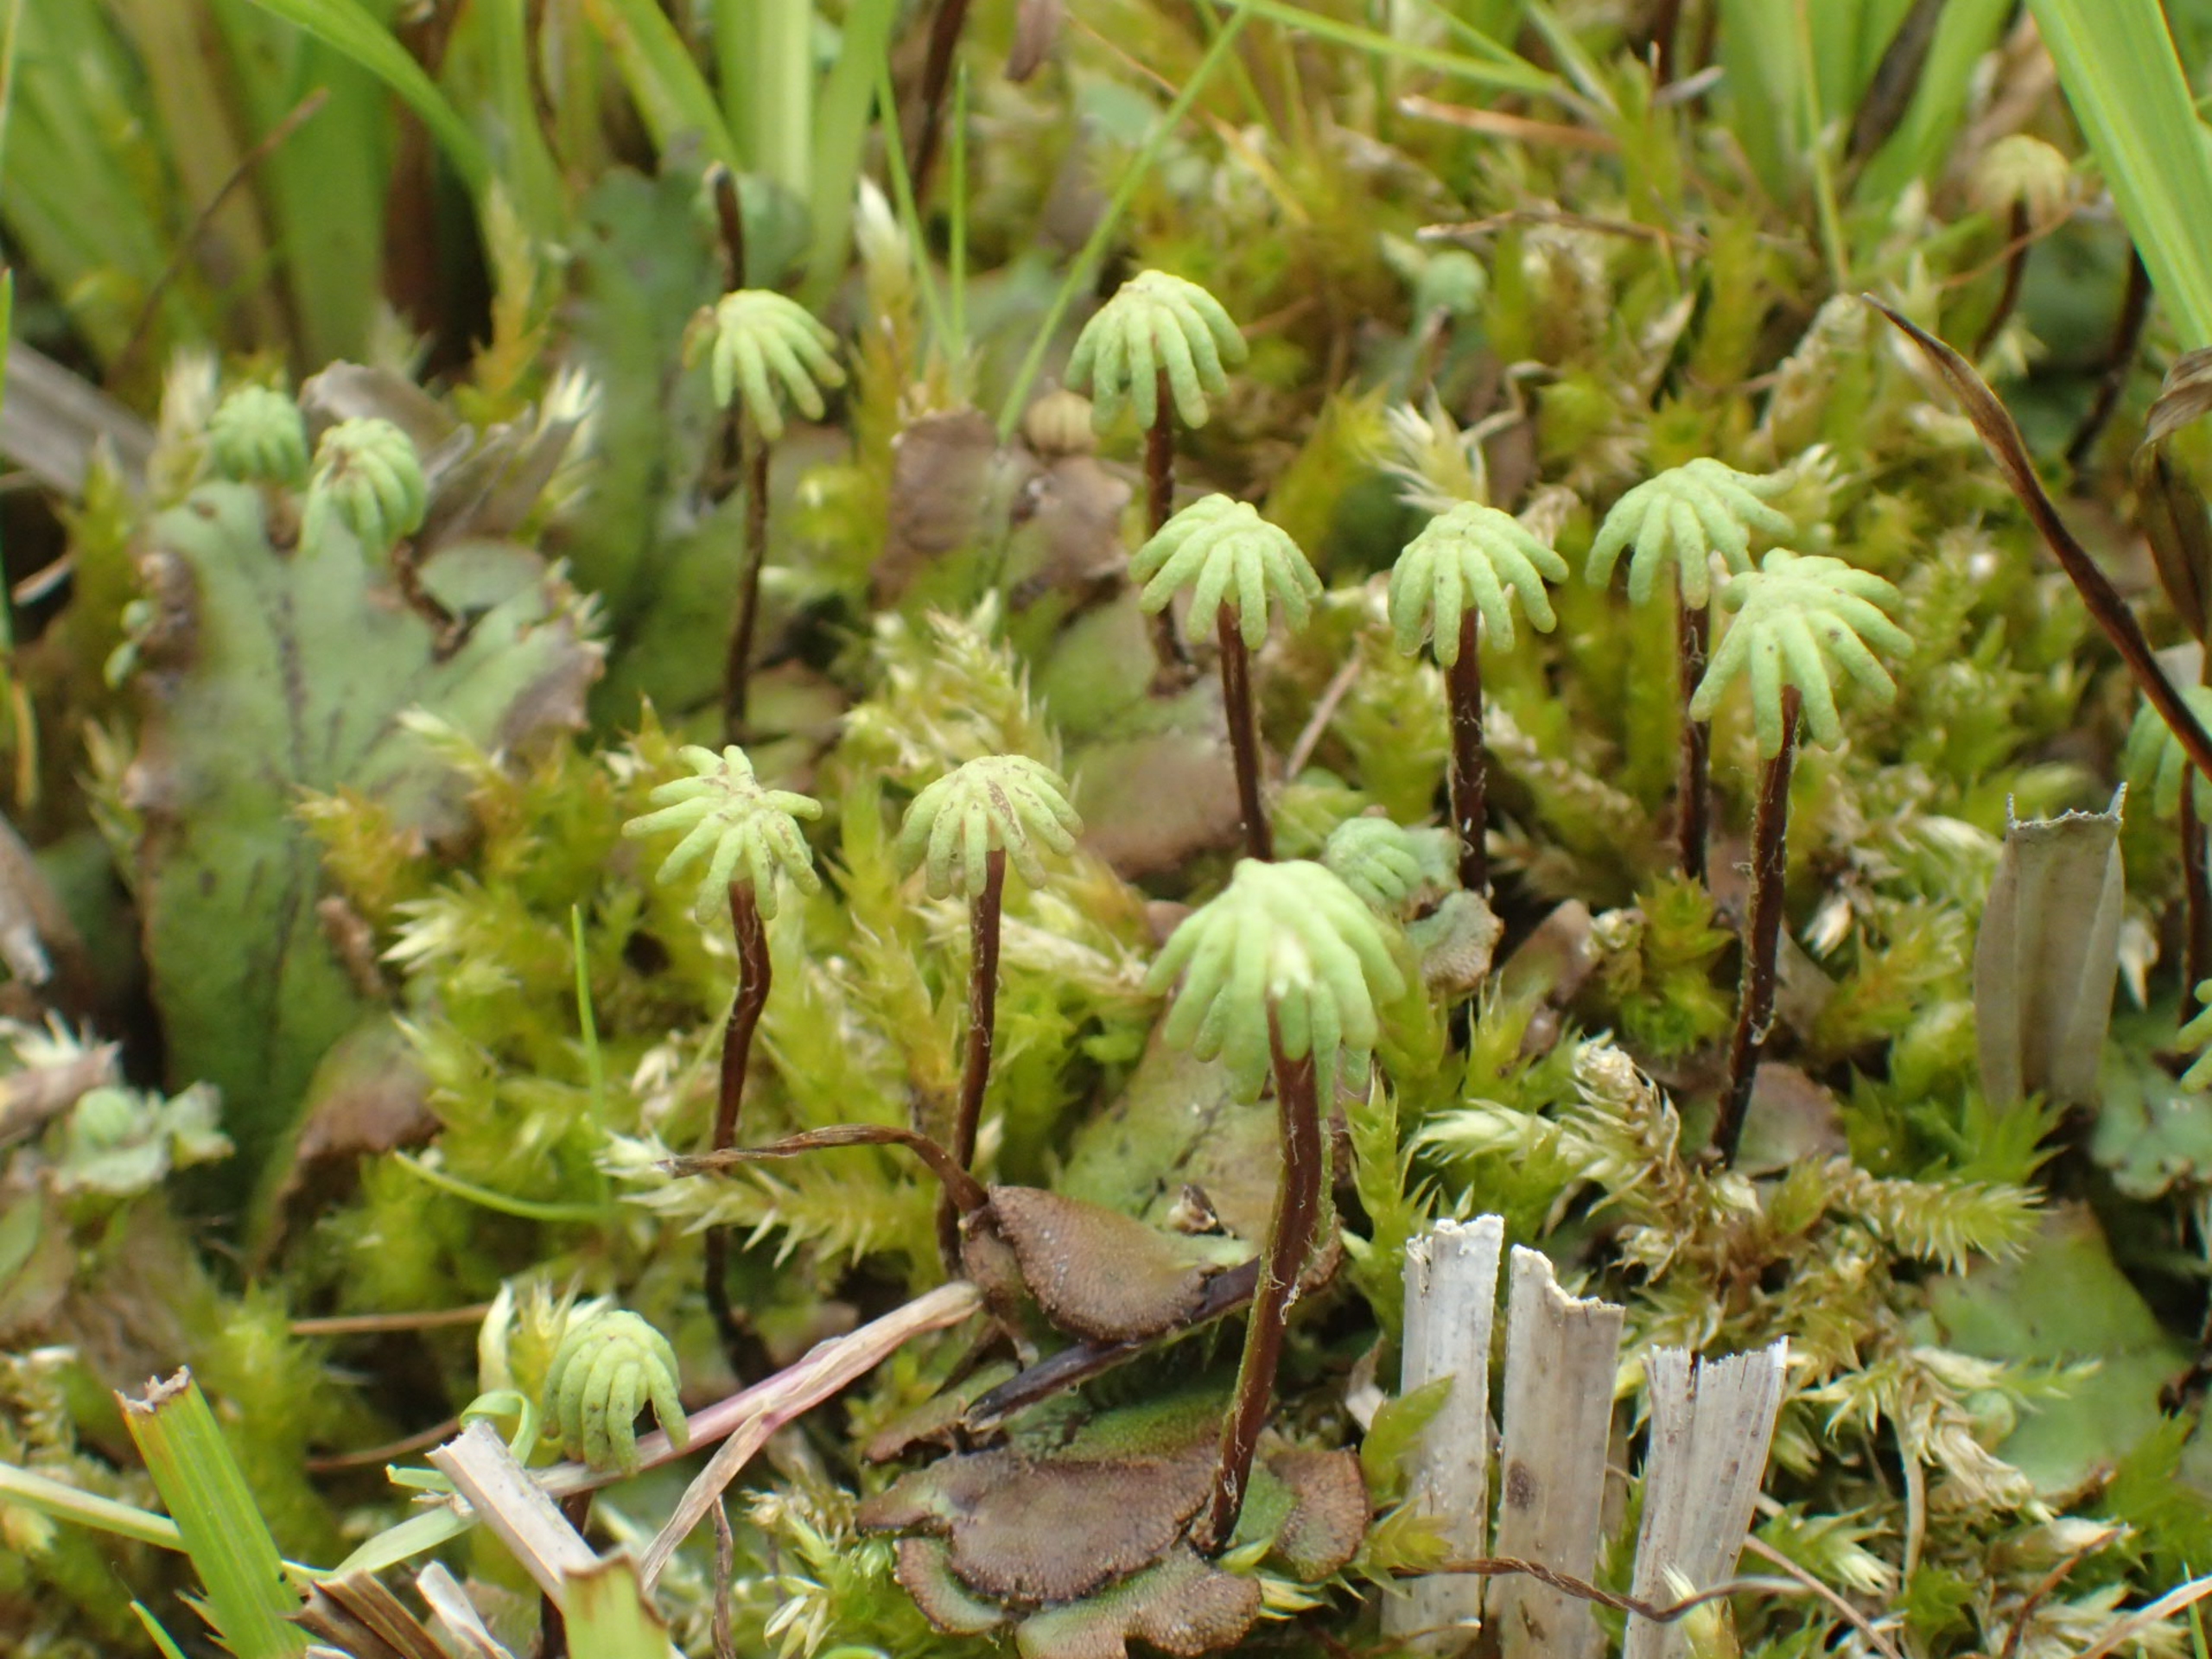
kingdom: Plantae
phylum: Marchantiophyta
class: Marchantiopsida
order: Marchantiales
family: Marchantiaceae
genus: Marchantia
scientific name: Marchantia polymorpha
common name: Mose-lungemos
